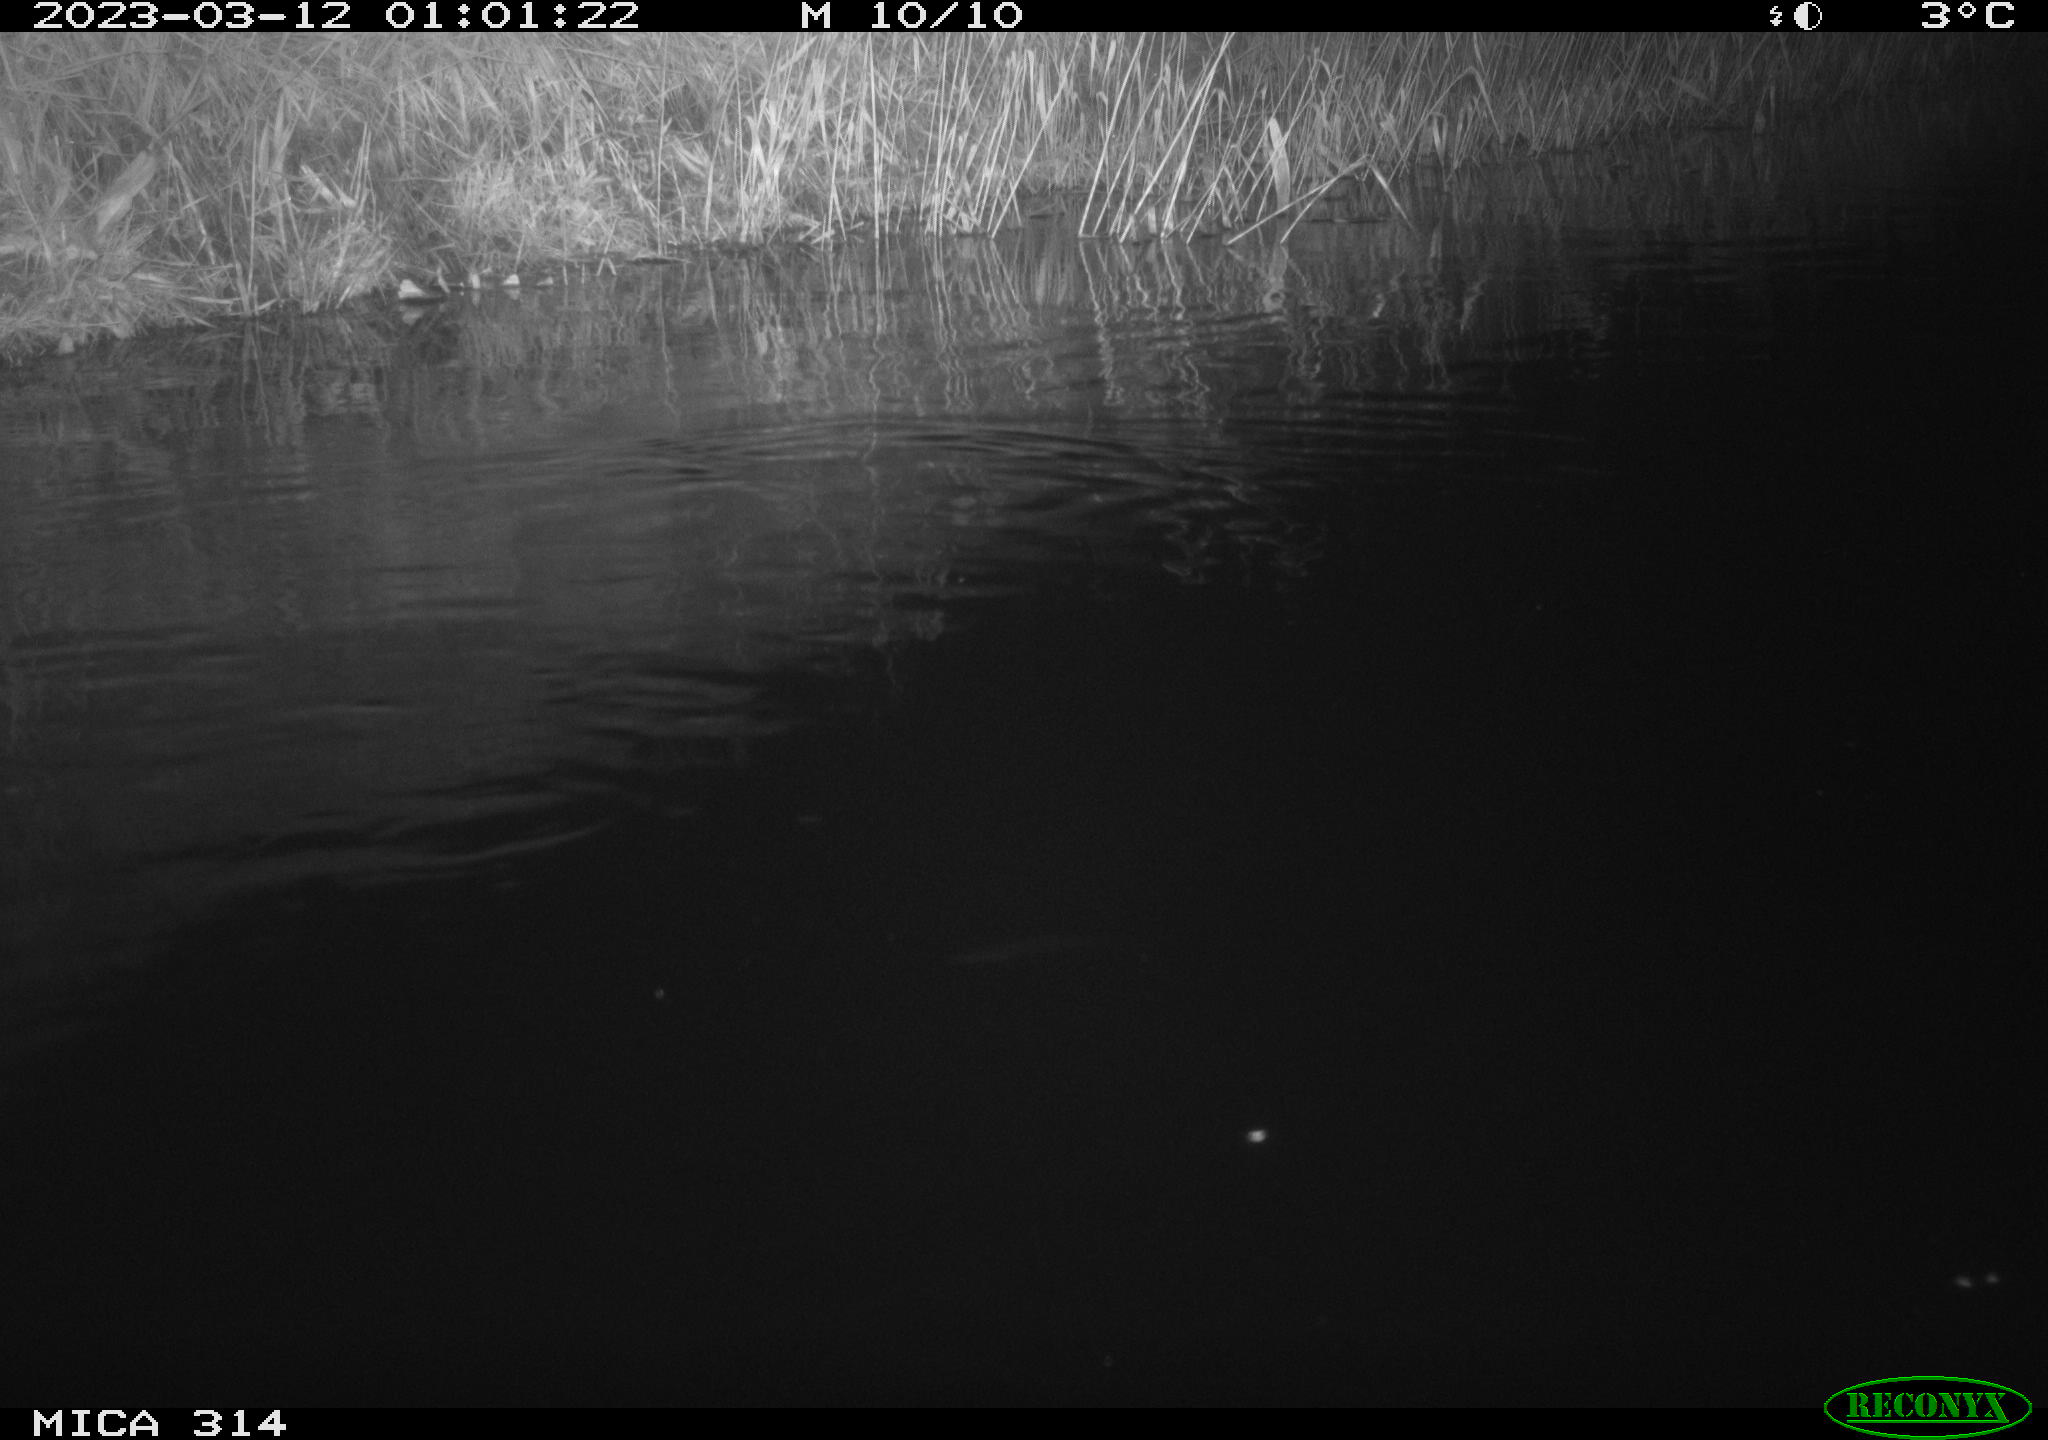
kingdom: Animalia
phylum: Chordata
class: Mammalia
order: Rodentia
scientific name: Rodentia
